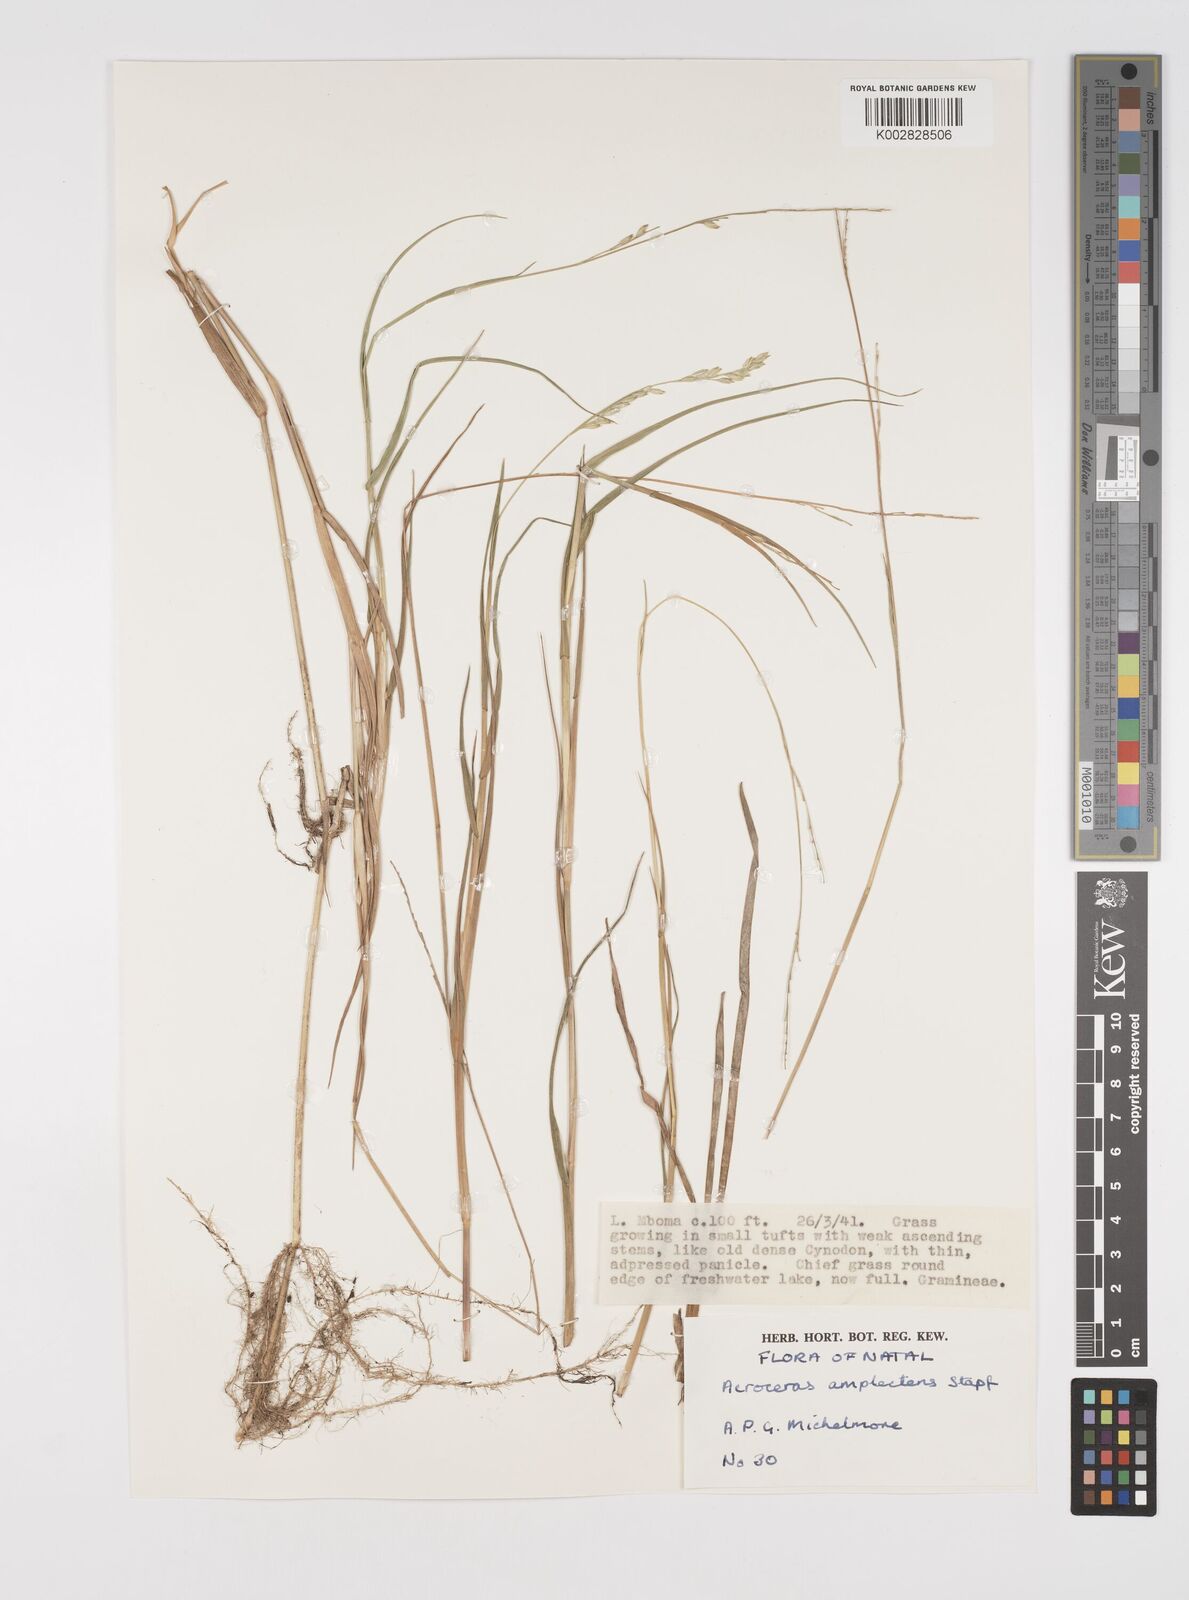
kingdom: Plantae
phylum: Tracheophyta
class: Liliopsida
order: Poales
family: Poaceae
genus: Acroceras
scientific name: Acroceras macrum
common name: Nyl grass
